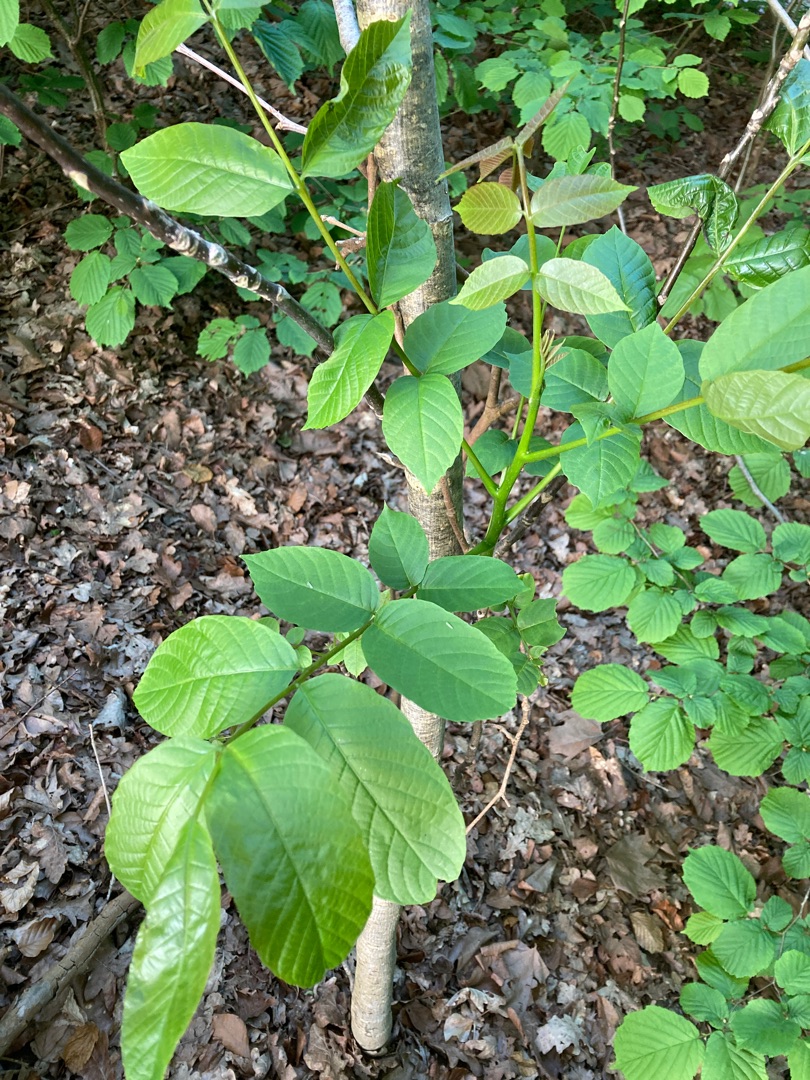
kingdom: Plantae
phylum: Tracheophyta
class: Magnoliopsida
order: Fagales
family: Juglandaceae
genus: Juglans
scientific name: Juglans regia
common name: Almindelig valnød
